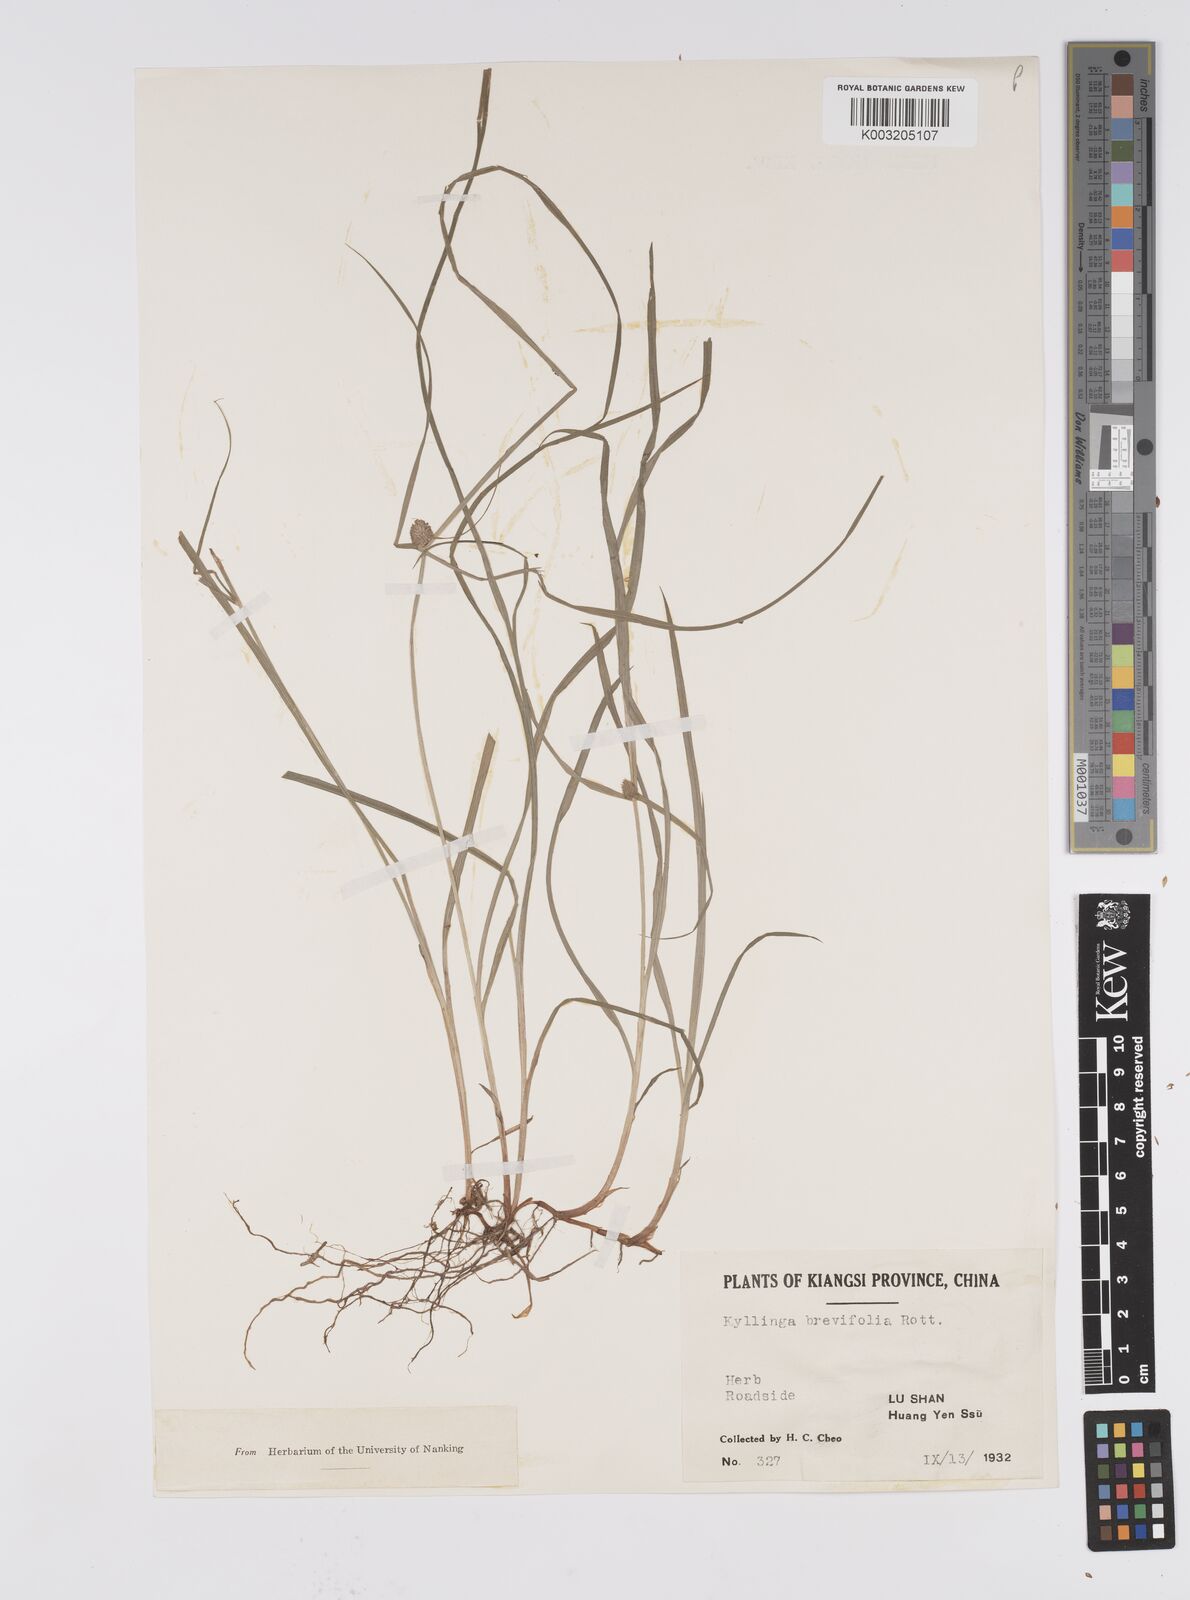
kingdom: Plantae
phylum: Tracheophyta
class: Liliopsida
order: Poales
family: Cyperaceae
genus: Cyperus
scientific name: Cyperus brevifolius
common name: Globe kyllinga
